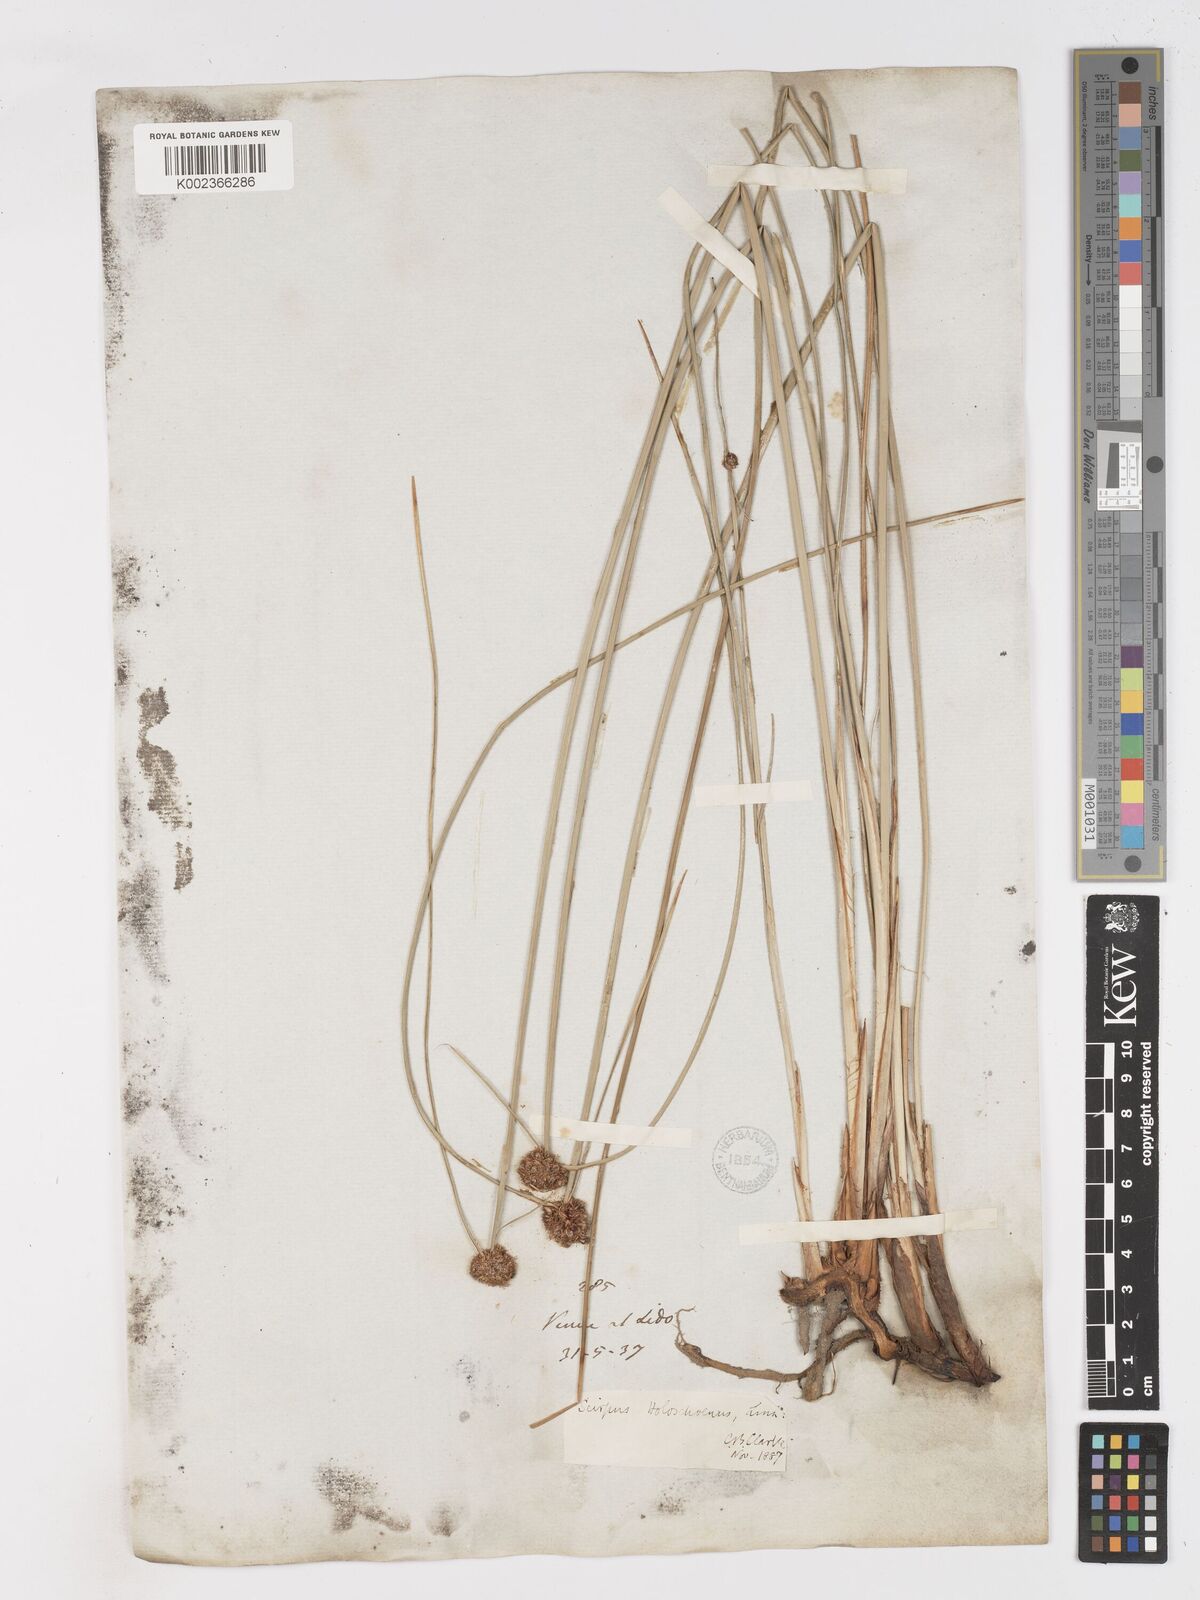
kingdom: Plantae
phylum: Tracheophyta
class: Liliopsida
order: Poales
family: Cyperaceae
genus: Scirpoides
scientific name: Scirpoides holoschoenus
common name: Round-headed club-rush
